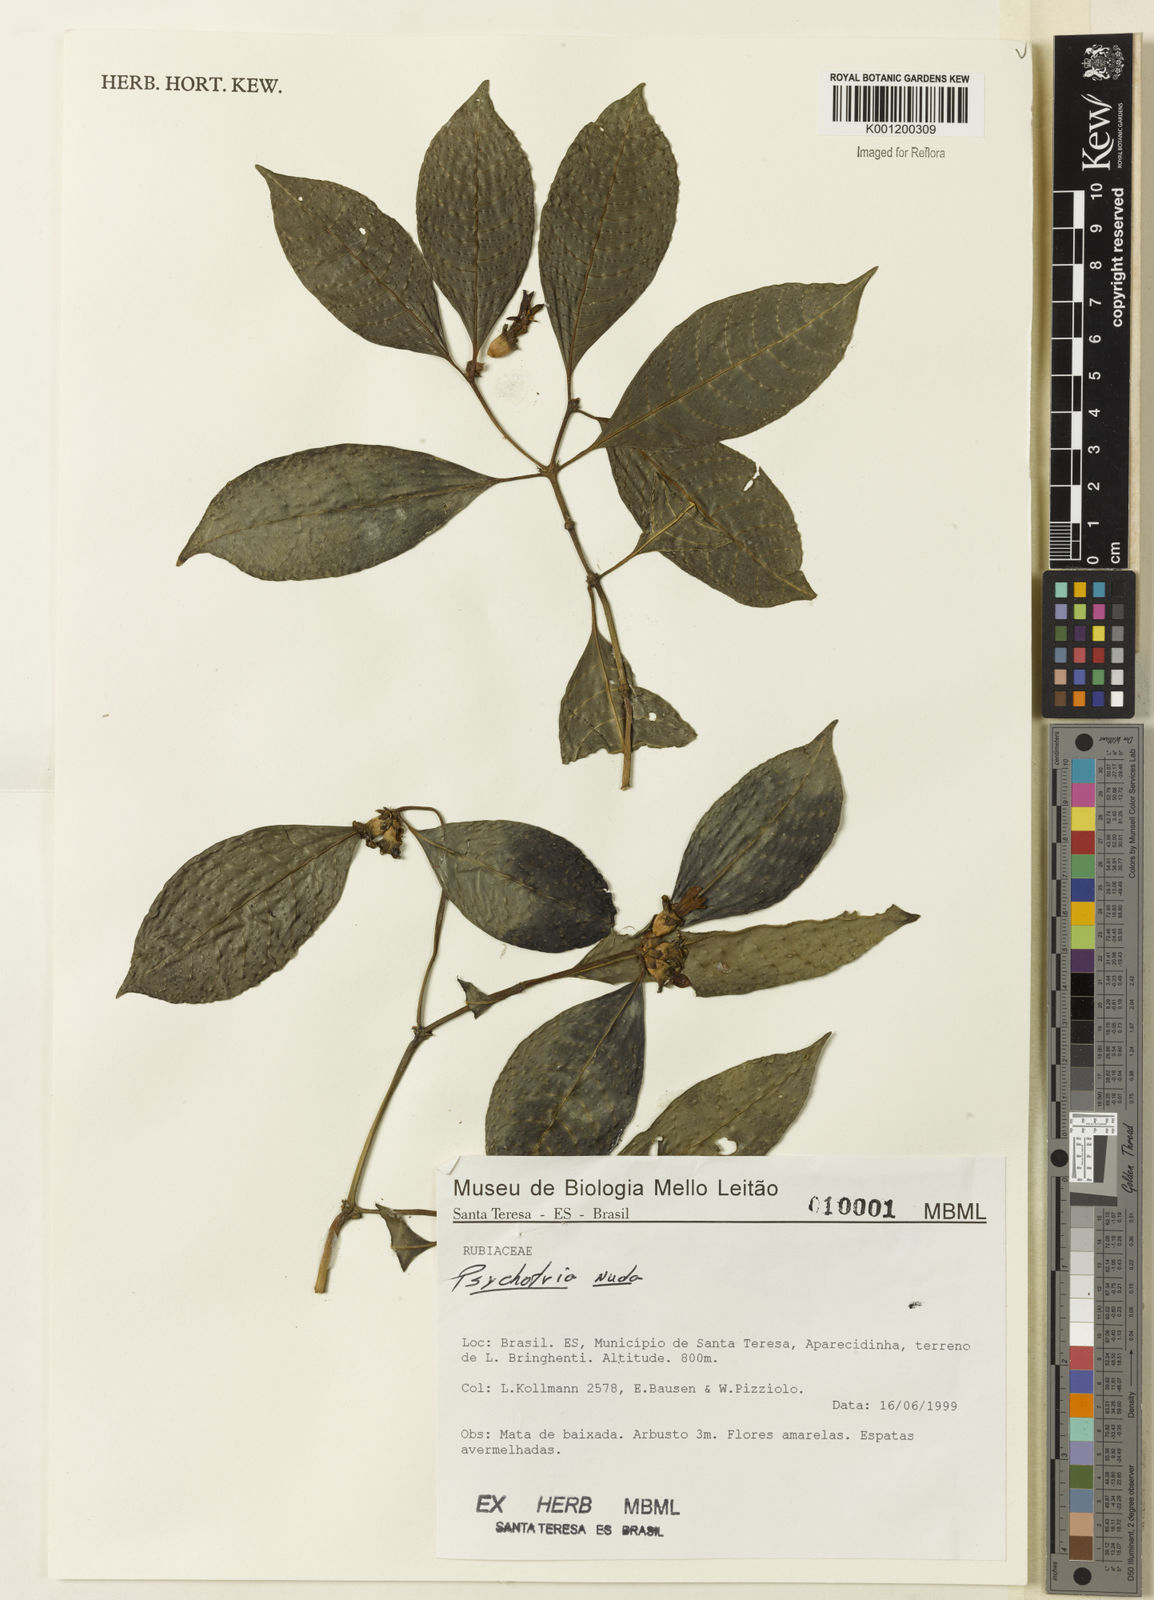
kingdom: Plantae
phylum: Tracheophyta
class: Magnoliopsida
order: Gentianales
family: Rubiaceae
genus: Psychotria
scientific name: Psychotria nuda
